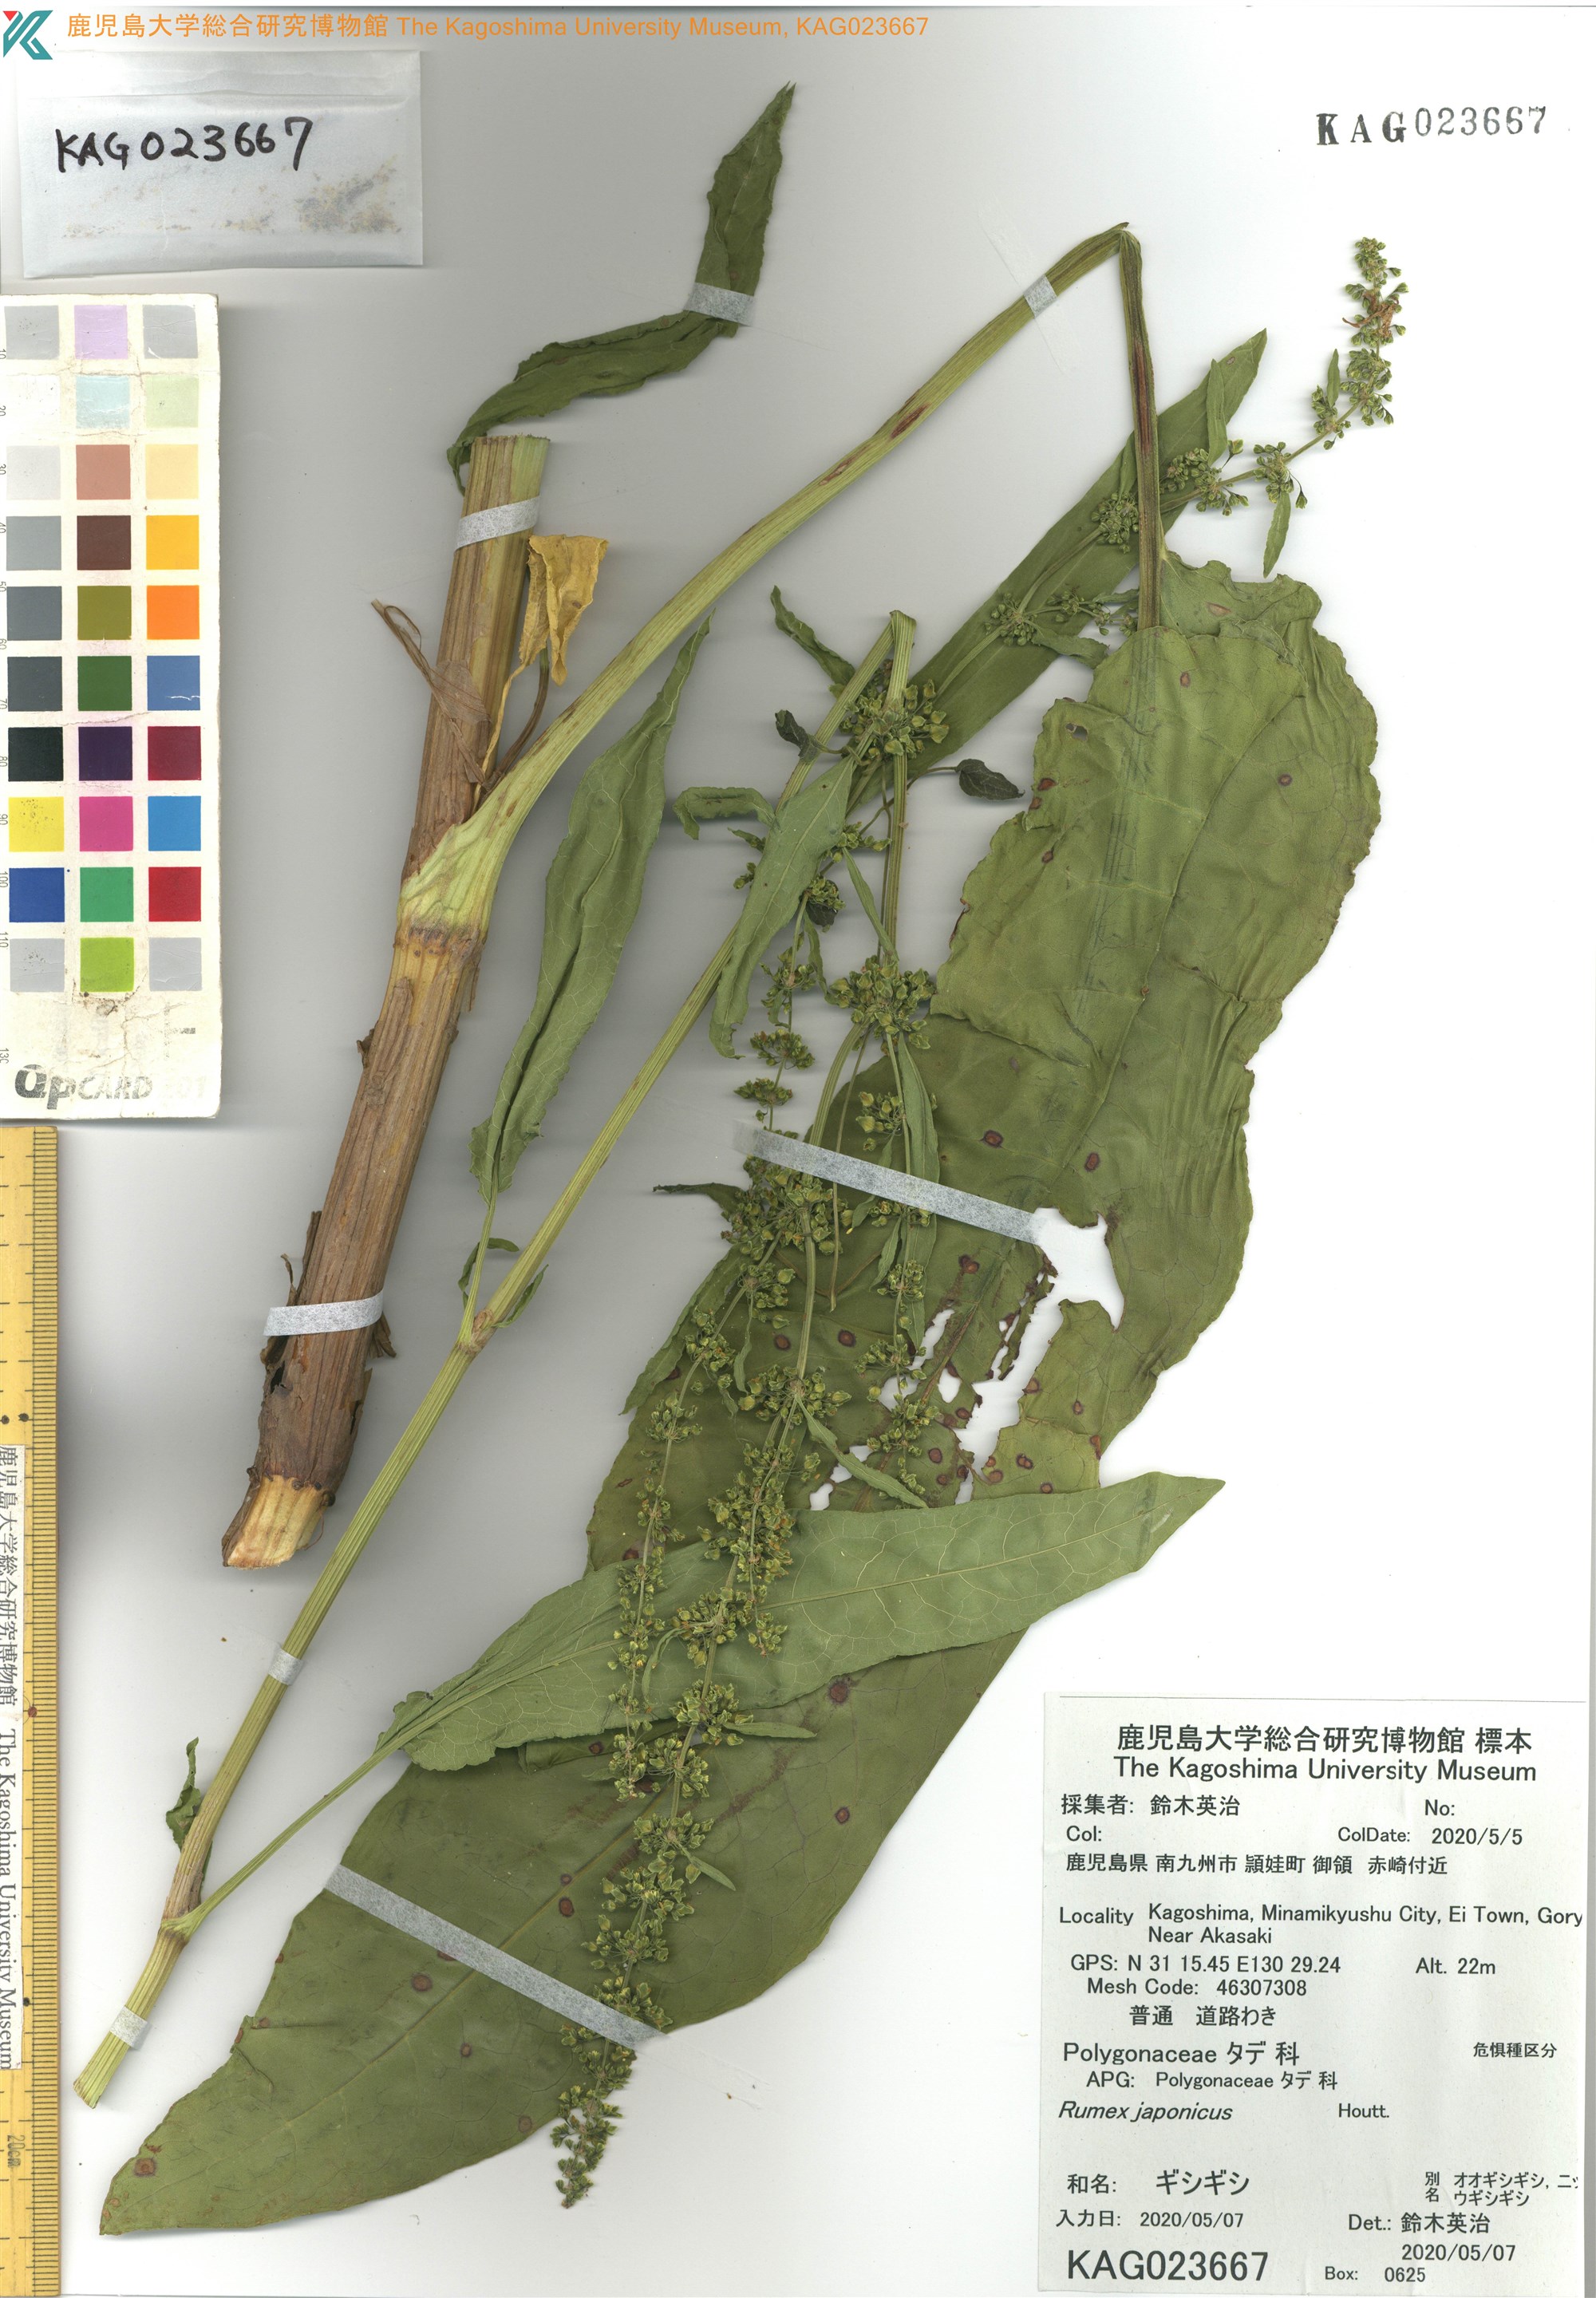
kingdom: Plantae
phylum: Tracheophyta
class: Magnoliopsida
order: Caryophyllales
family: Polygonaceae
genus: Rumex
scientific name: Rumex japonicus
